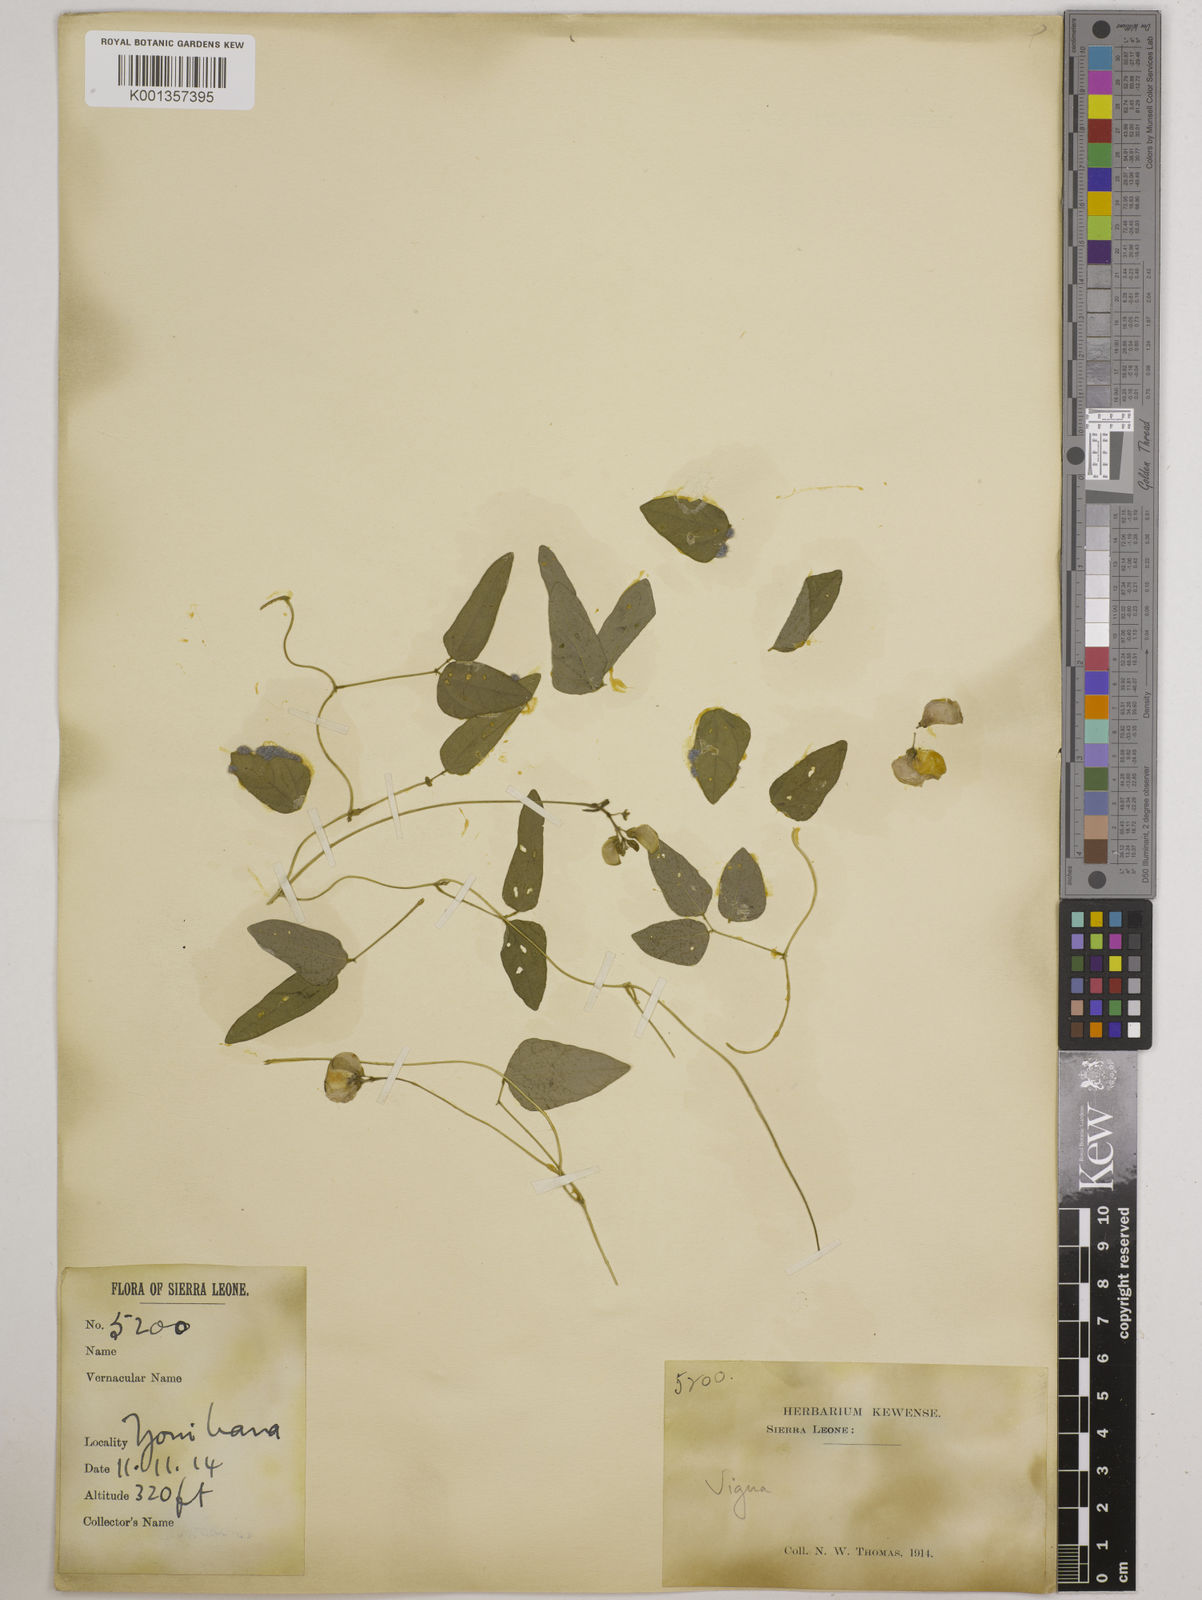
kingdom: Plantae
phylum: Tracheophyta
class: Magnoliopsida
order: Fabales
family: Fabaceae
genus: Vigna
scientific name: Vigna gracilis
